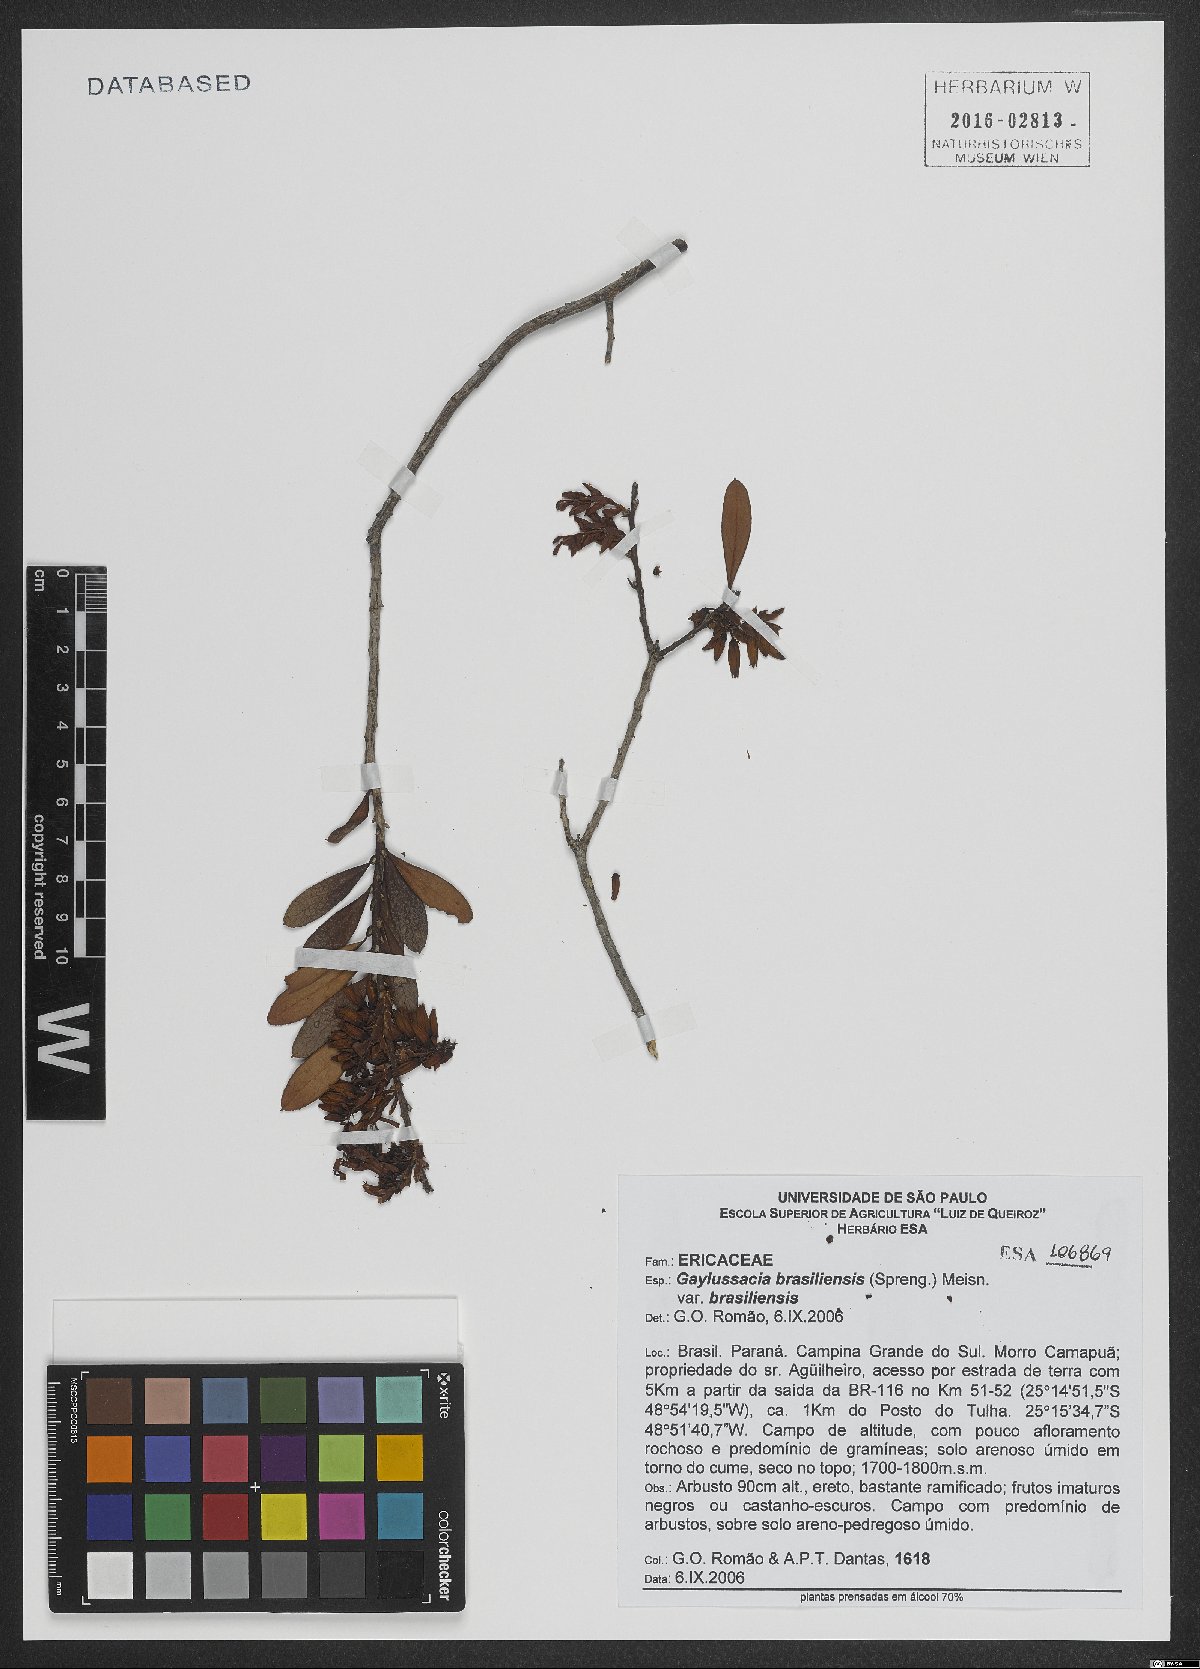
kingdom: Plantae
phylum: Tracheophyta
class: Magnoliopsida
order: Ericales
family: Ericaceae
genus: Gaylussacia
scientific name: Gaylussacia brasiliensis
